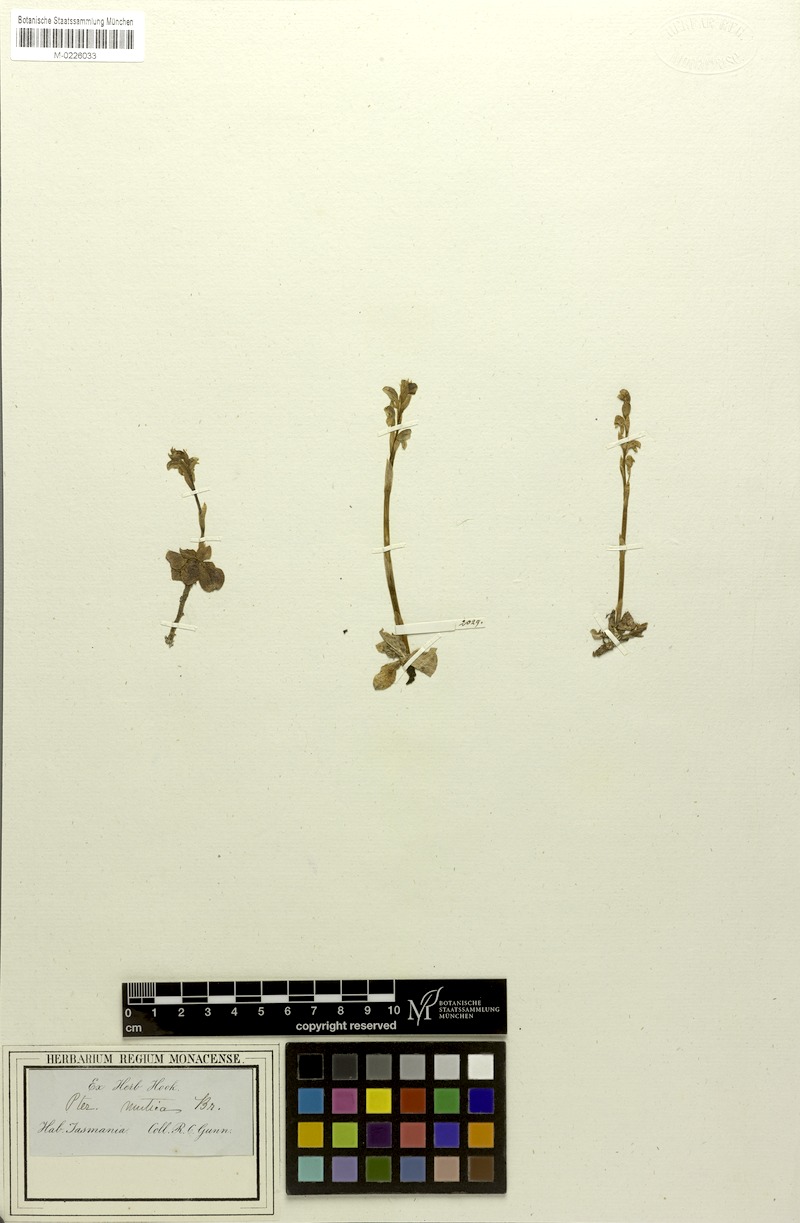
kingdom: Plantae
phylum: Tracheophyta
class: Liliopsida
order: Asparagales
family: Orchidaceae
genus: Pterostylis
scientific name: Pterostylis mutica
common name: Midget greenhood
